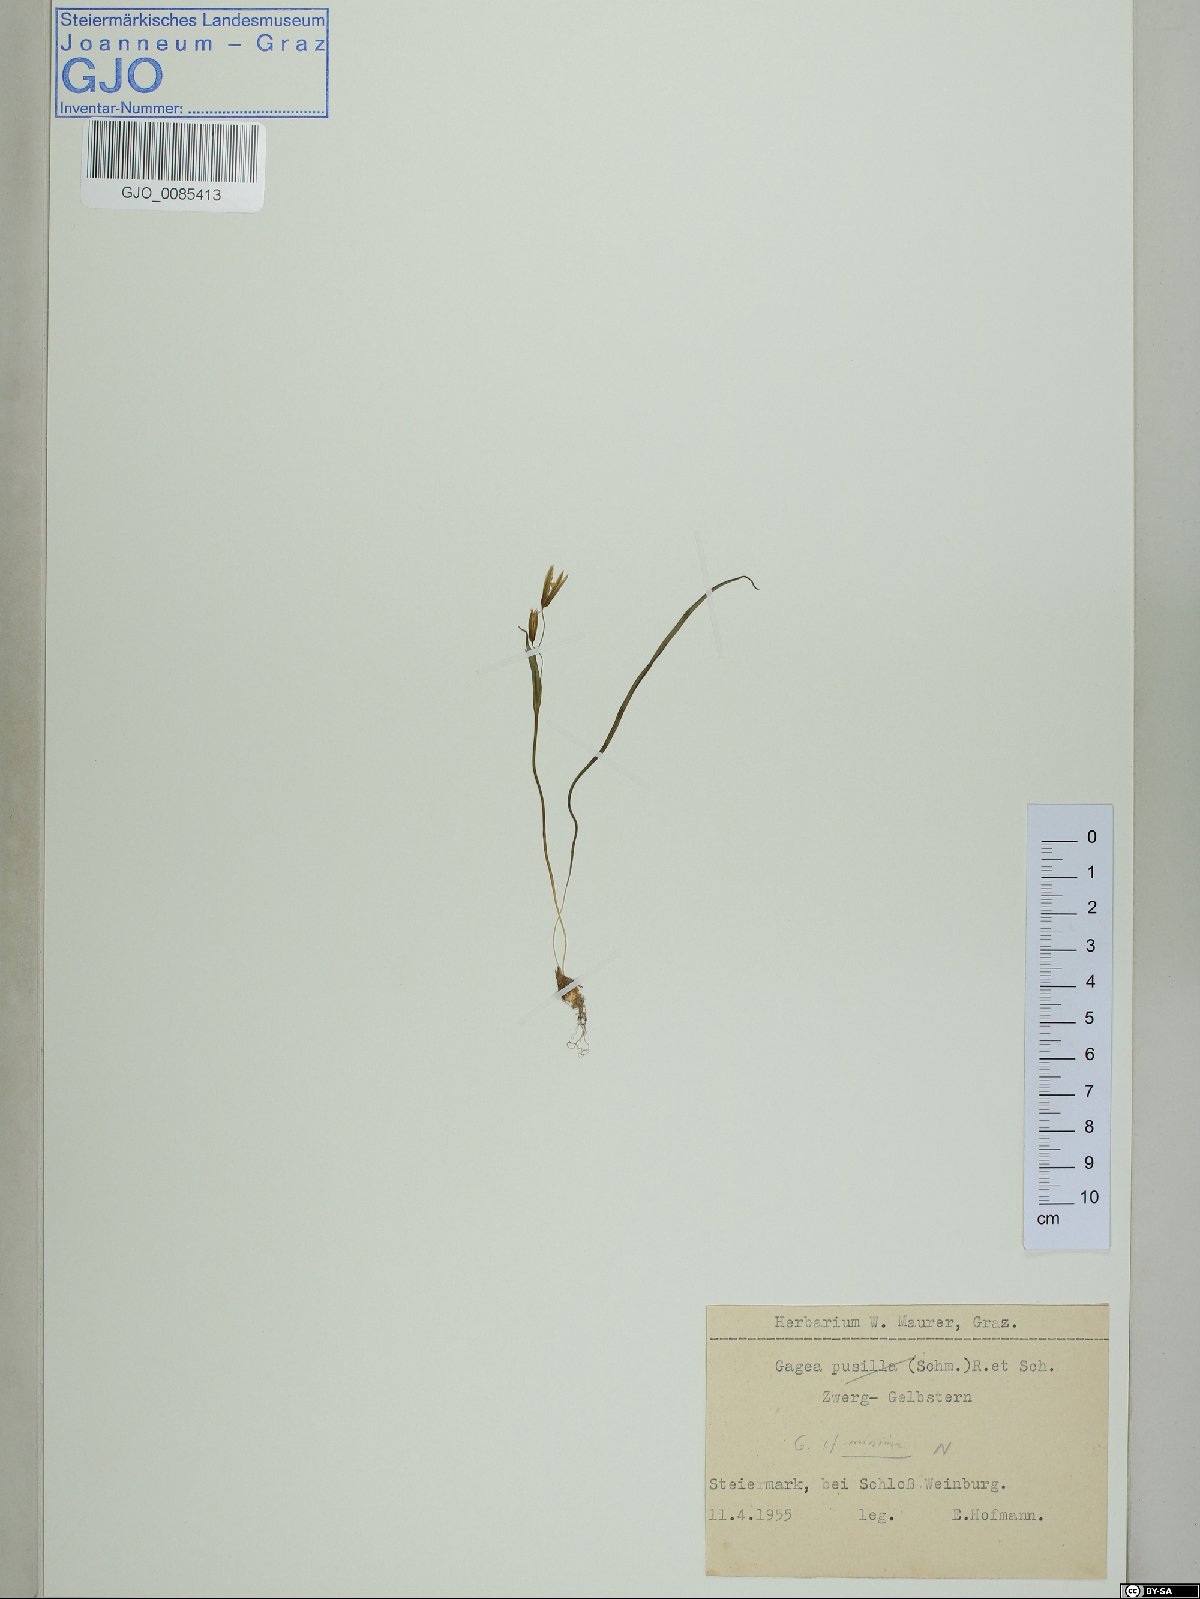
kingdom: Plantae
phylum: Tracheophyta
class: Liliopsida
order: Liliales
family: Liliaceae
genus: Gagea
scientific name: Gagea minima
